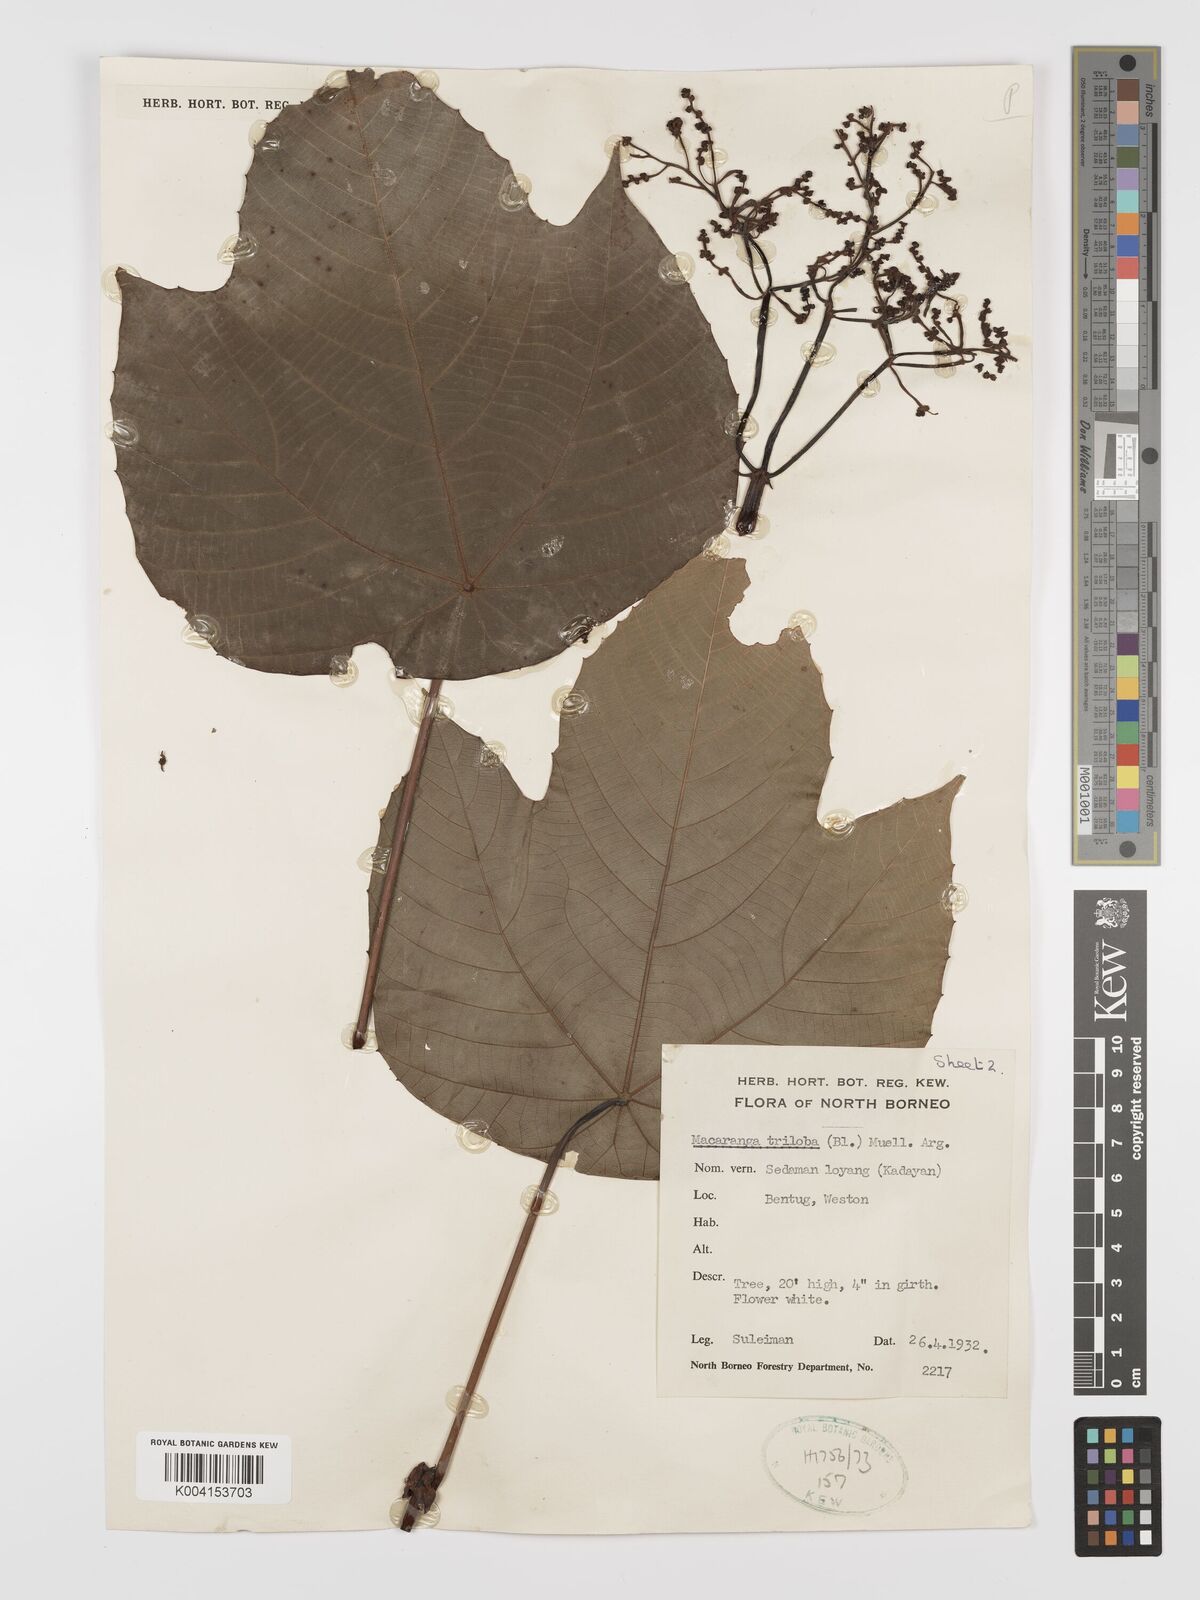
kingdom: Plantae
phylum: Tracheophyta
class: Magnoliopsida
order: Malpighiales
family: Euphorbiaceae
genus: Macaranga
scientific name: Macaranga triloba
